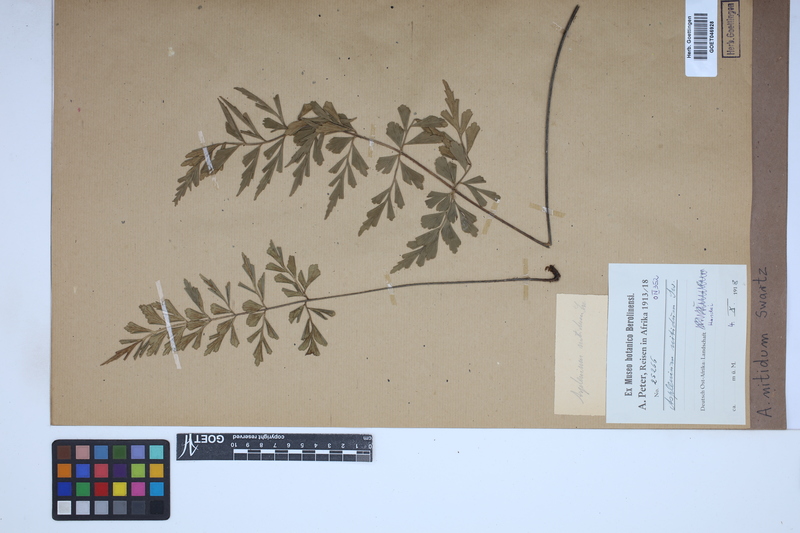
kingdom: Plantae
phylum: Tracheophyta
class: Polypodiopsida
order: Polypodiales
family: Aspleniaceae
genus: Asplenium
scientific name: Asplenium nitidum
